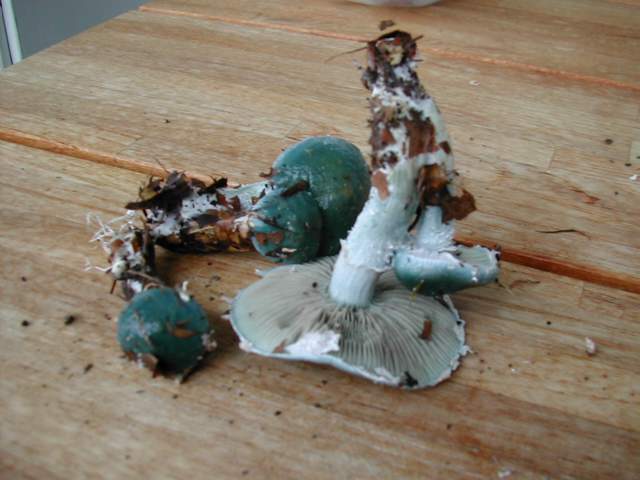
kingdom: Fungi
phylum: Basidiomycota
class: Agaricomycetes
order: Agaricales
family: Strophariaceae
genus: Stropharia
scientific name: Stropharia cyanea
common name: blågrøn bredblad
